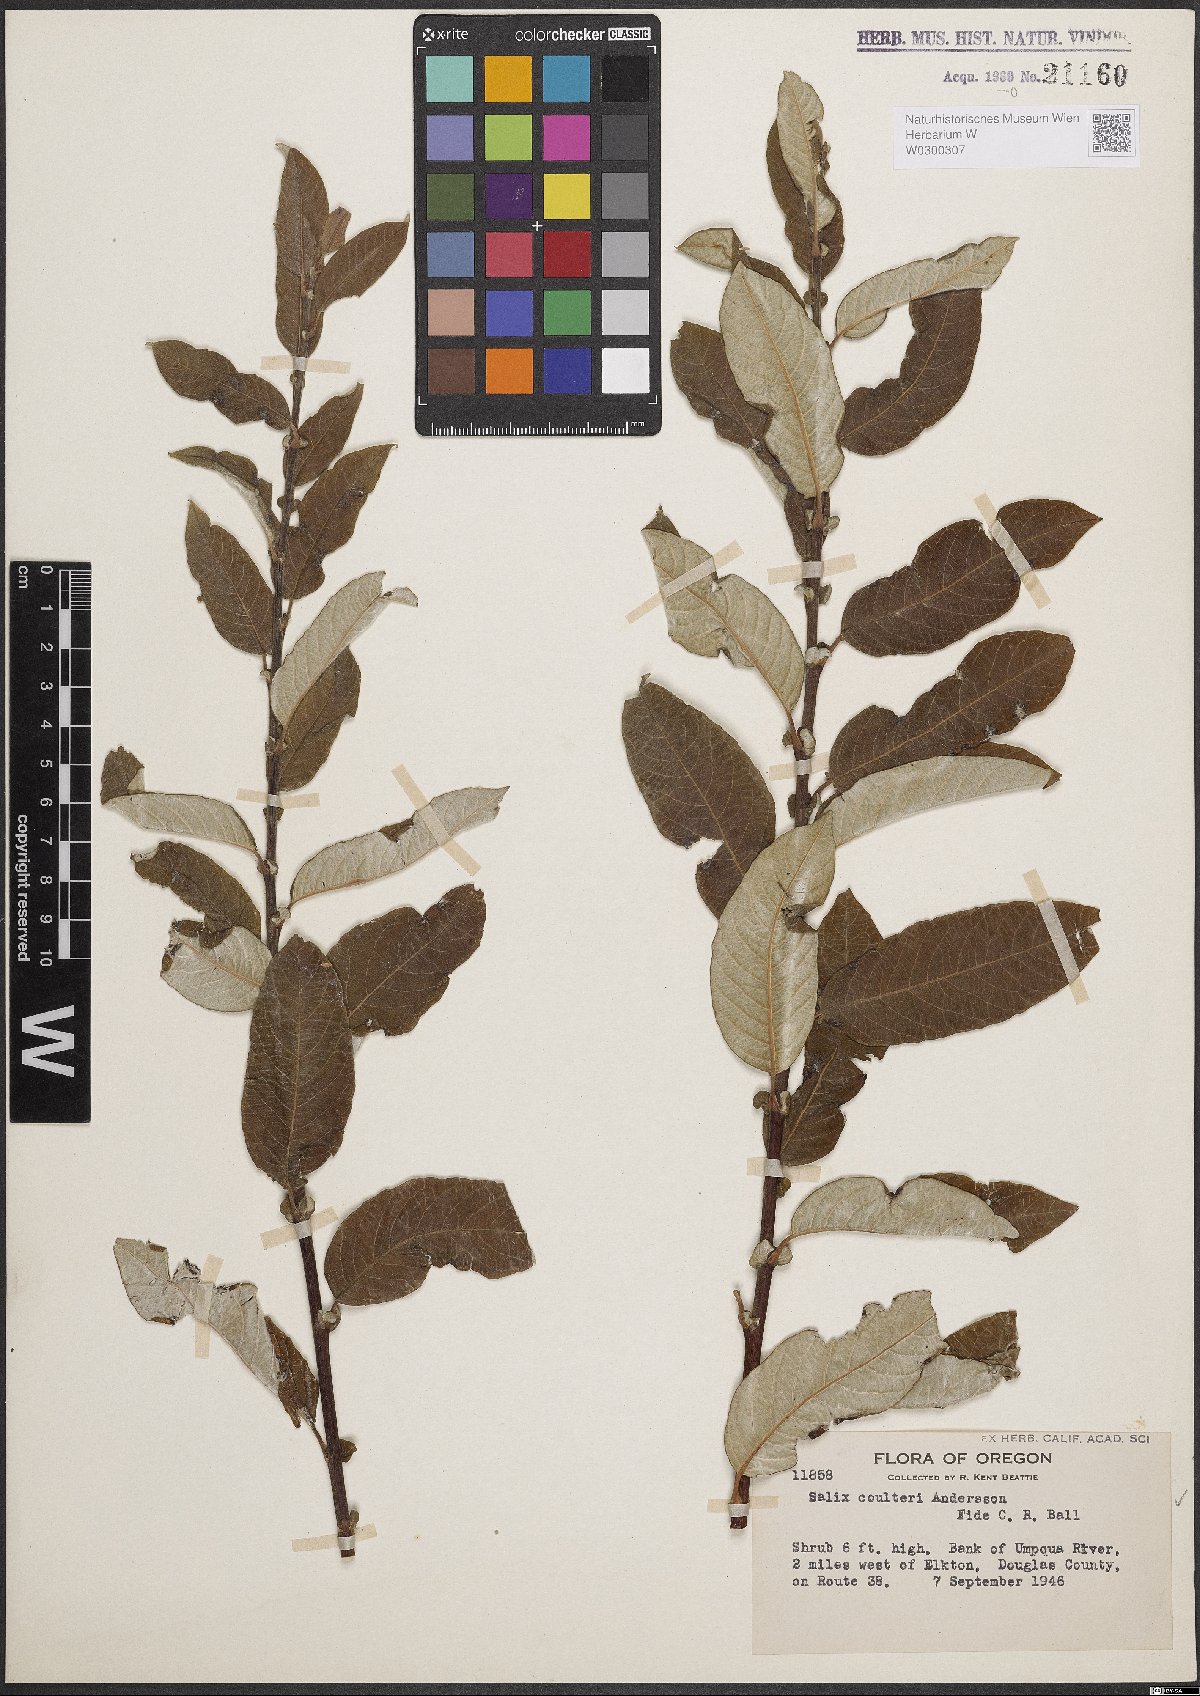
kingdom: Plantae
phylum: Tracheophyta
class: Magnoliopsida
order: Malpighiales
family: Salicaceae
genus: Salix
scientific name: Salix sitchensis
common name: Sitka willow
